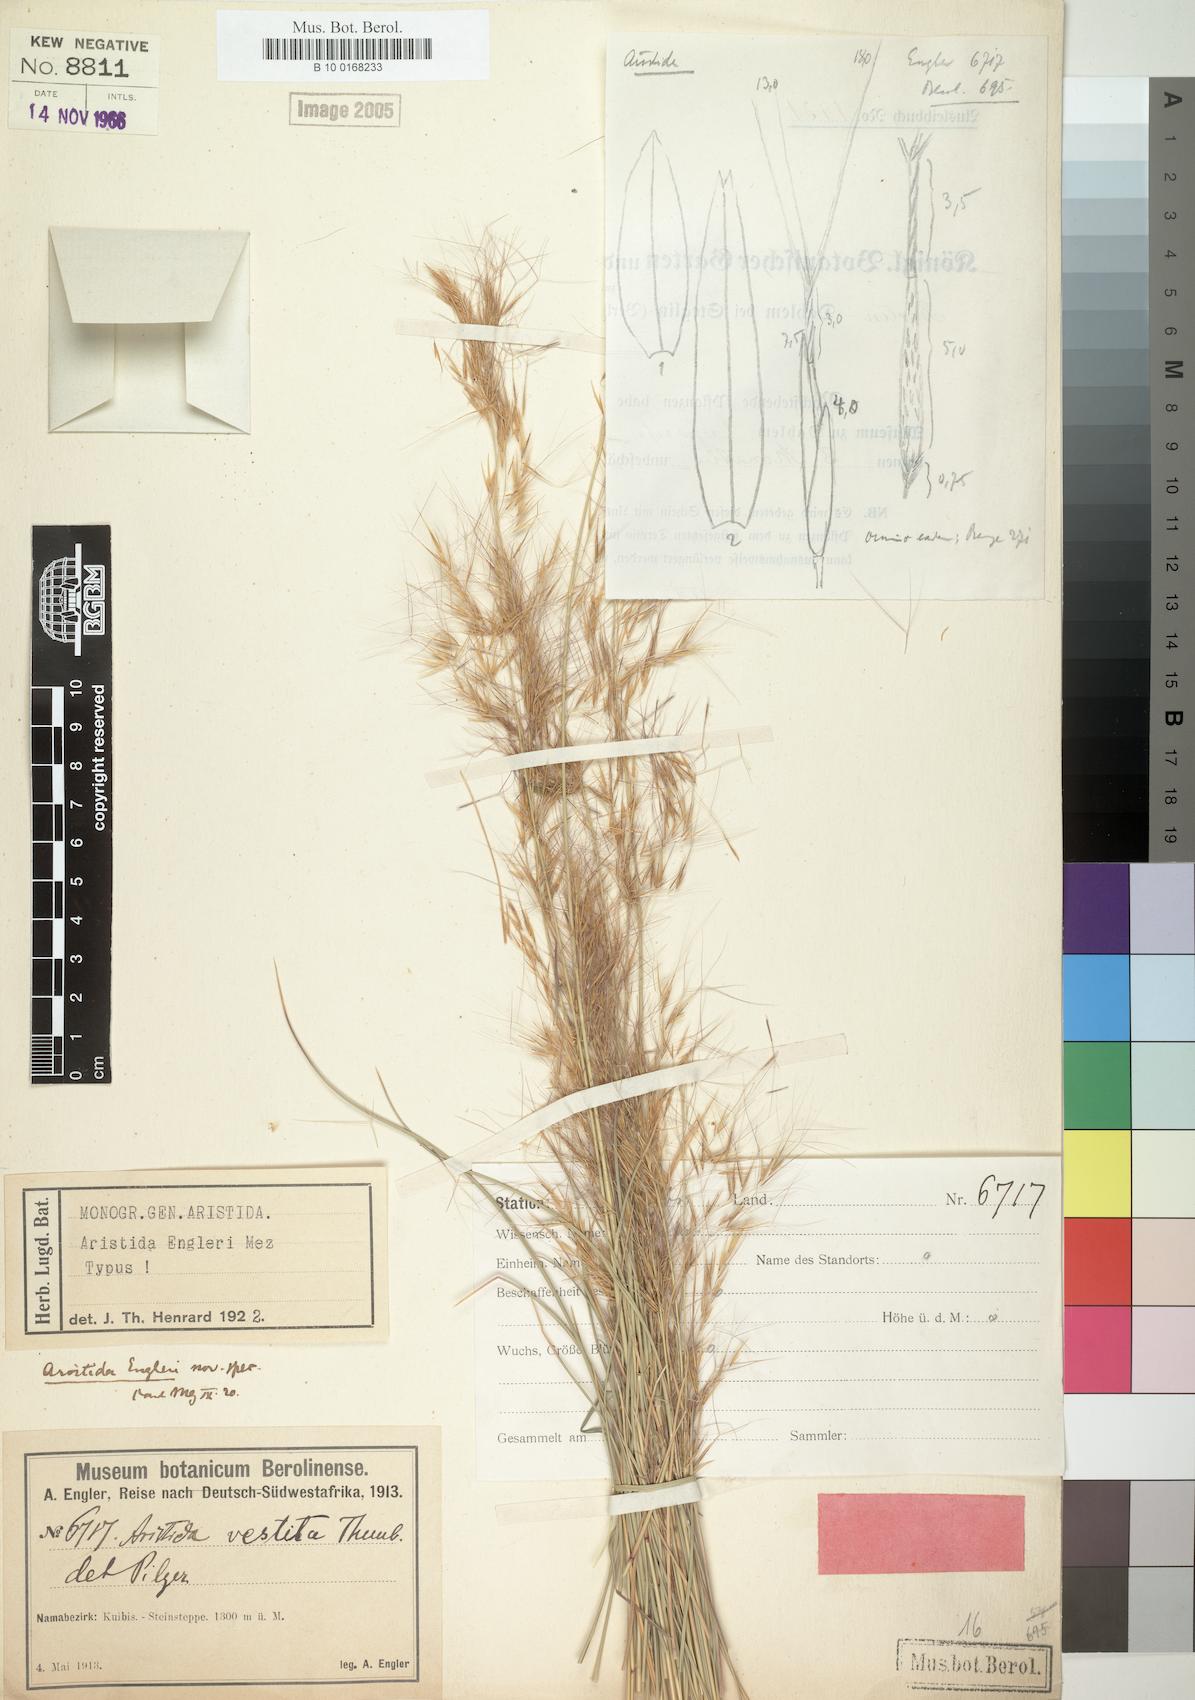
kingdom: Plantae
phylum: Tracheophyta
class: Liliopsida
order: Poales
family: Poaceae
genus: Aristida
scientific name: Aristida engleri
